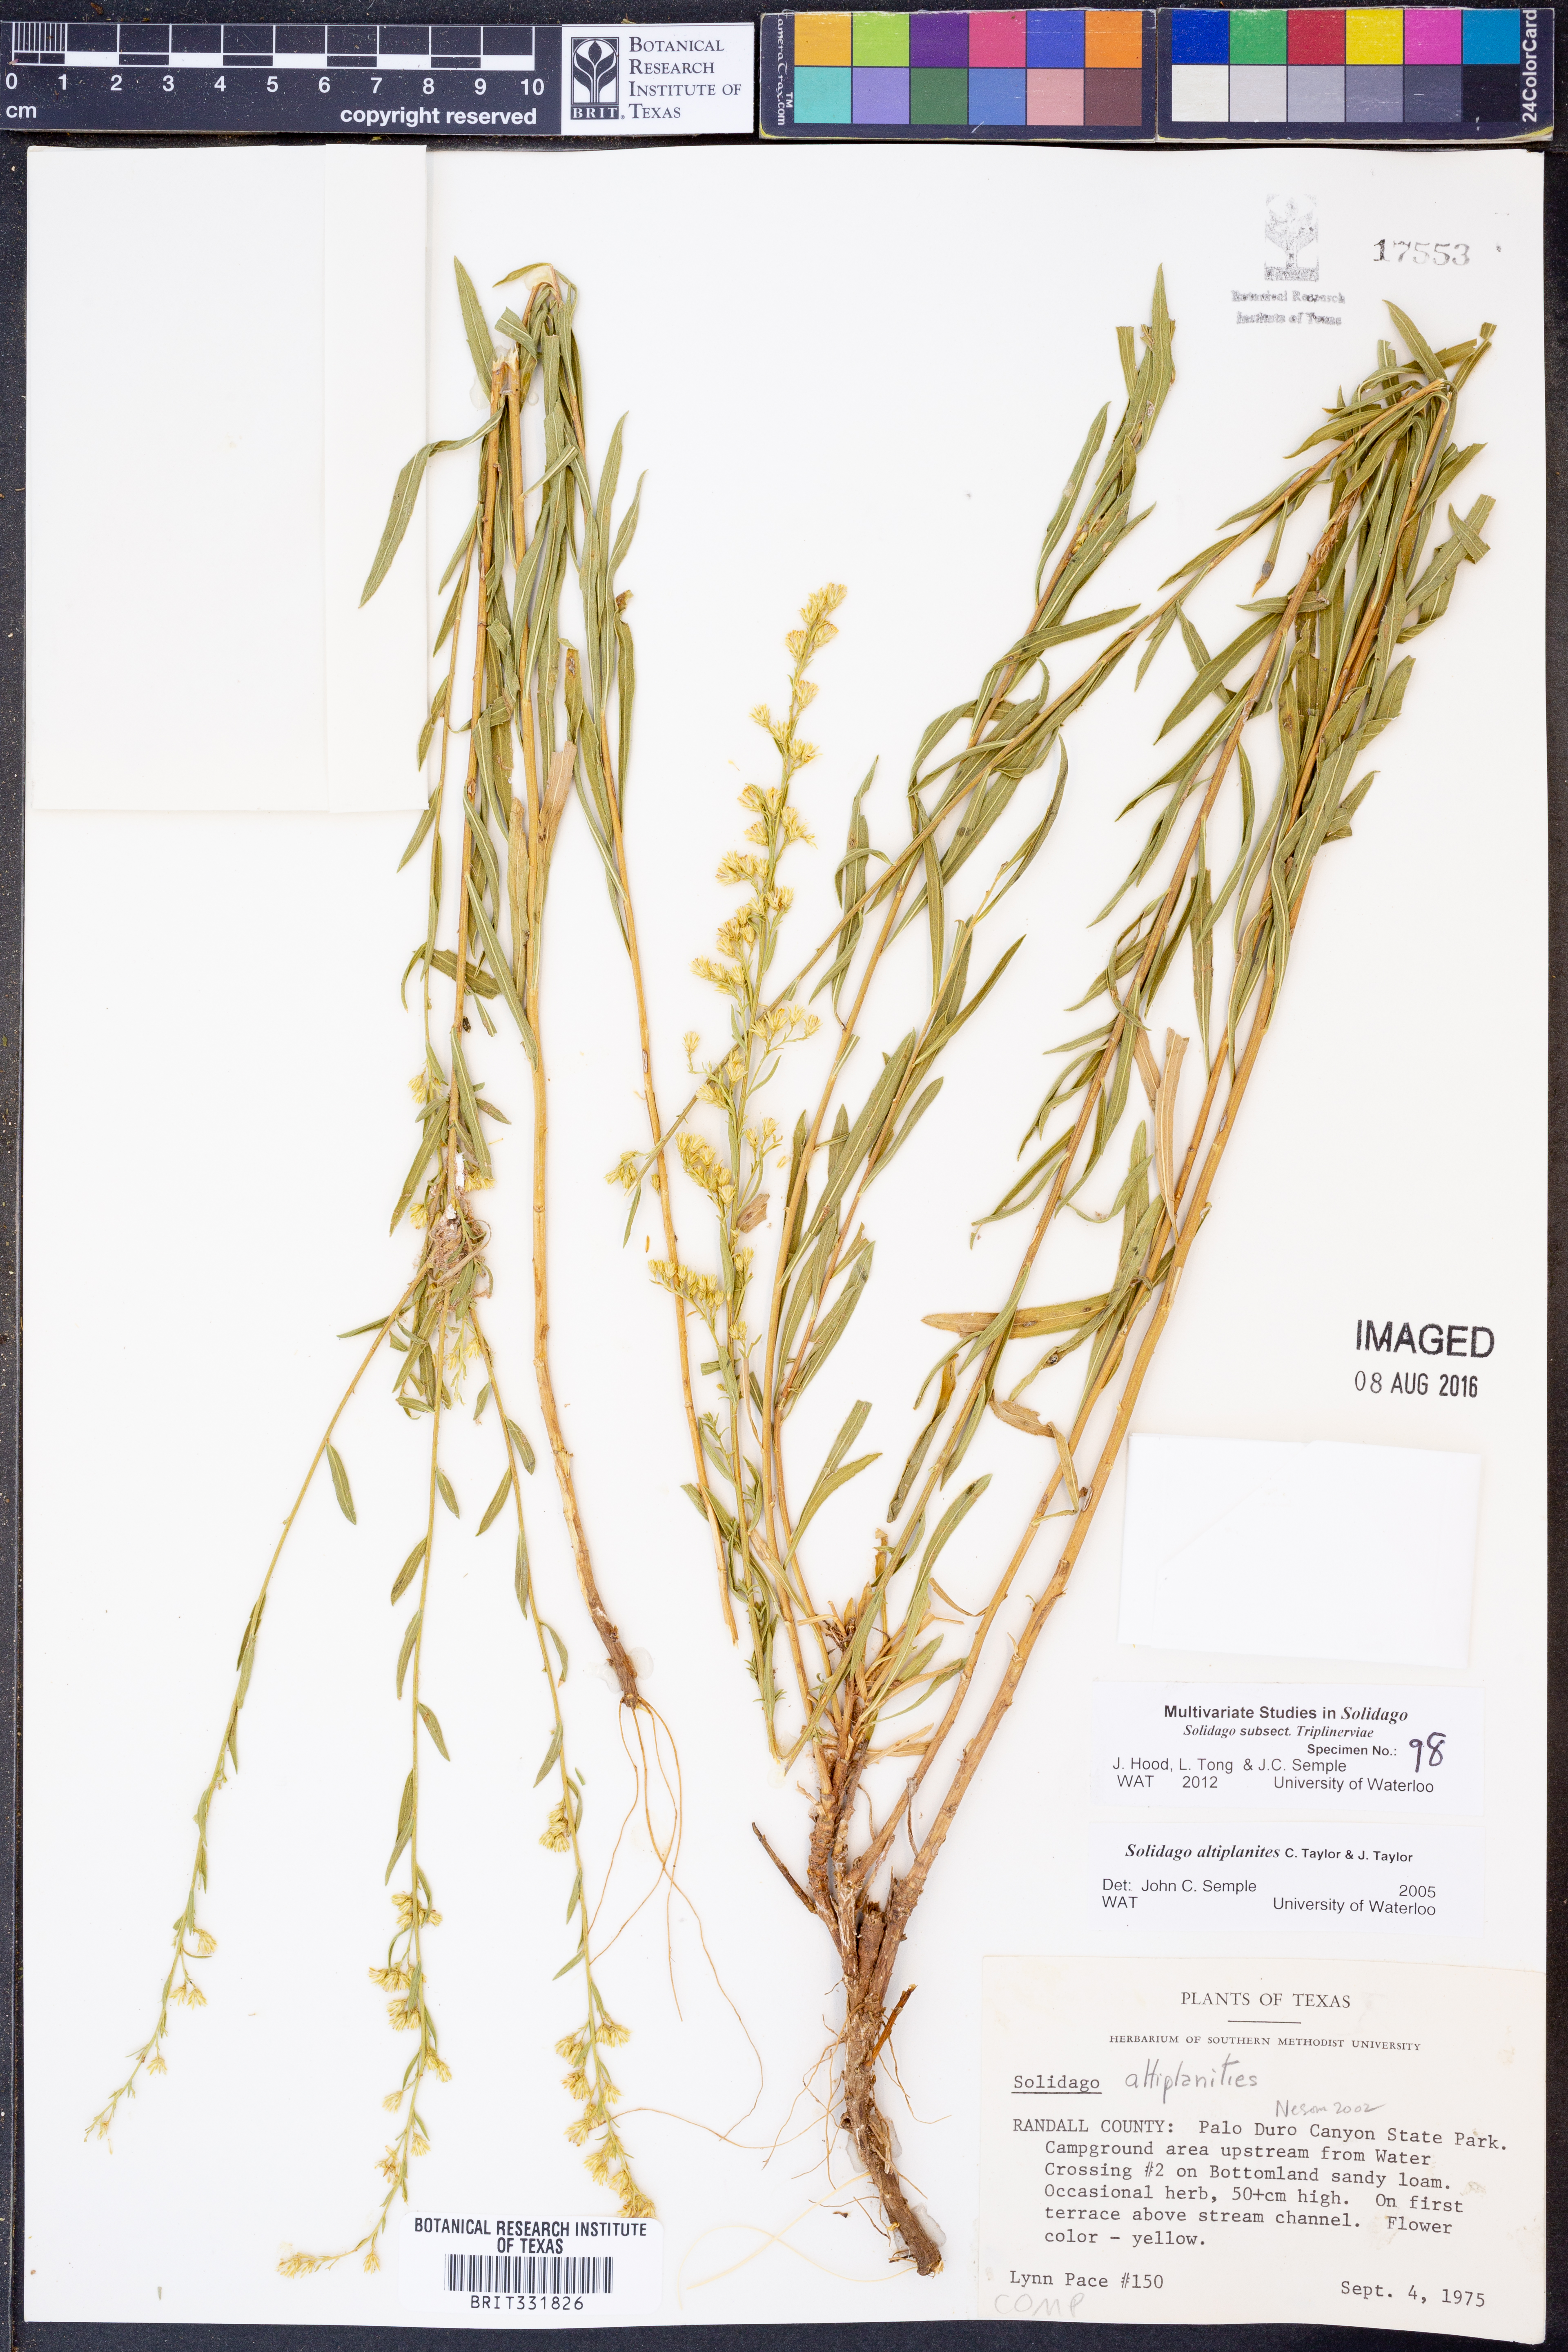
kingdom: Plantae
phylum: Tracheophyta
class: Magnoliopsida
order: Asterales
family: Asteraceae
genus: Solidago
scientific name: Solidago altiplanities
